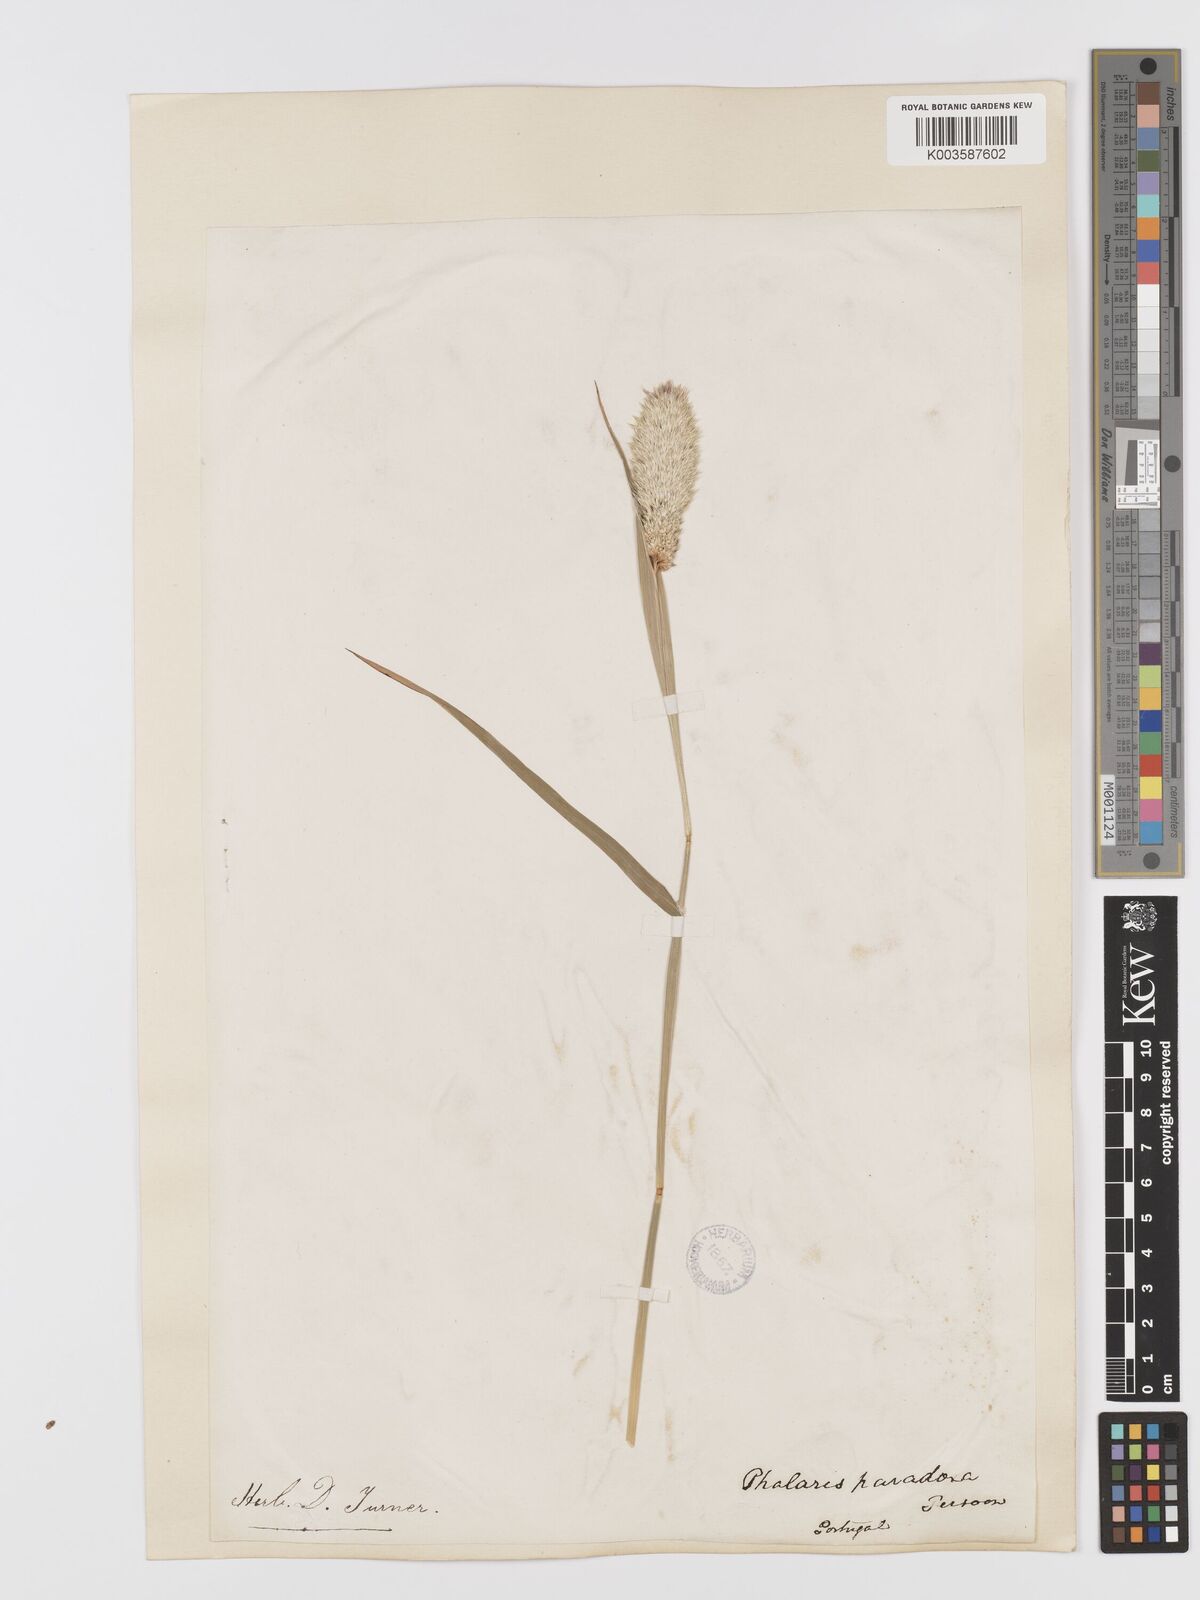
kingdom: Plantae
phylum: Tracheophyta
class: Liliopsida
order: Poales
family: Poaceae
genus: Phalaris
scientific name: Phalaris paradoxa
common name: Awned canary-grass
